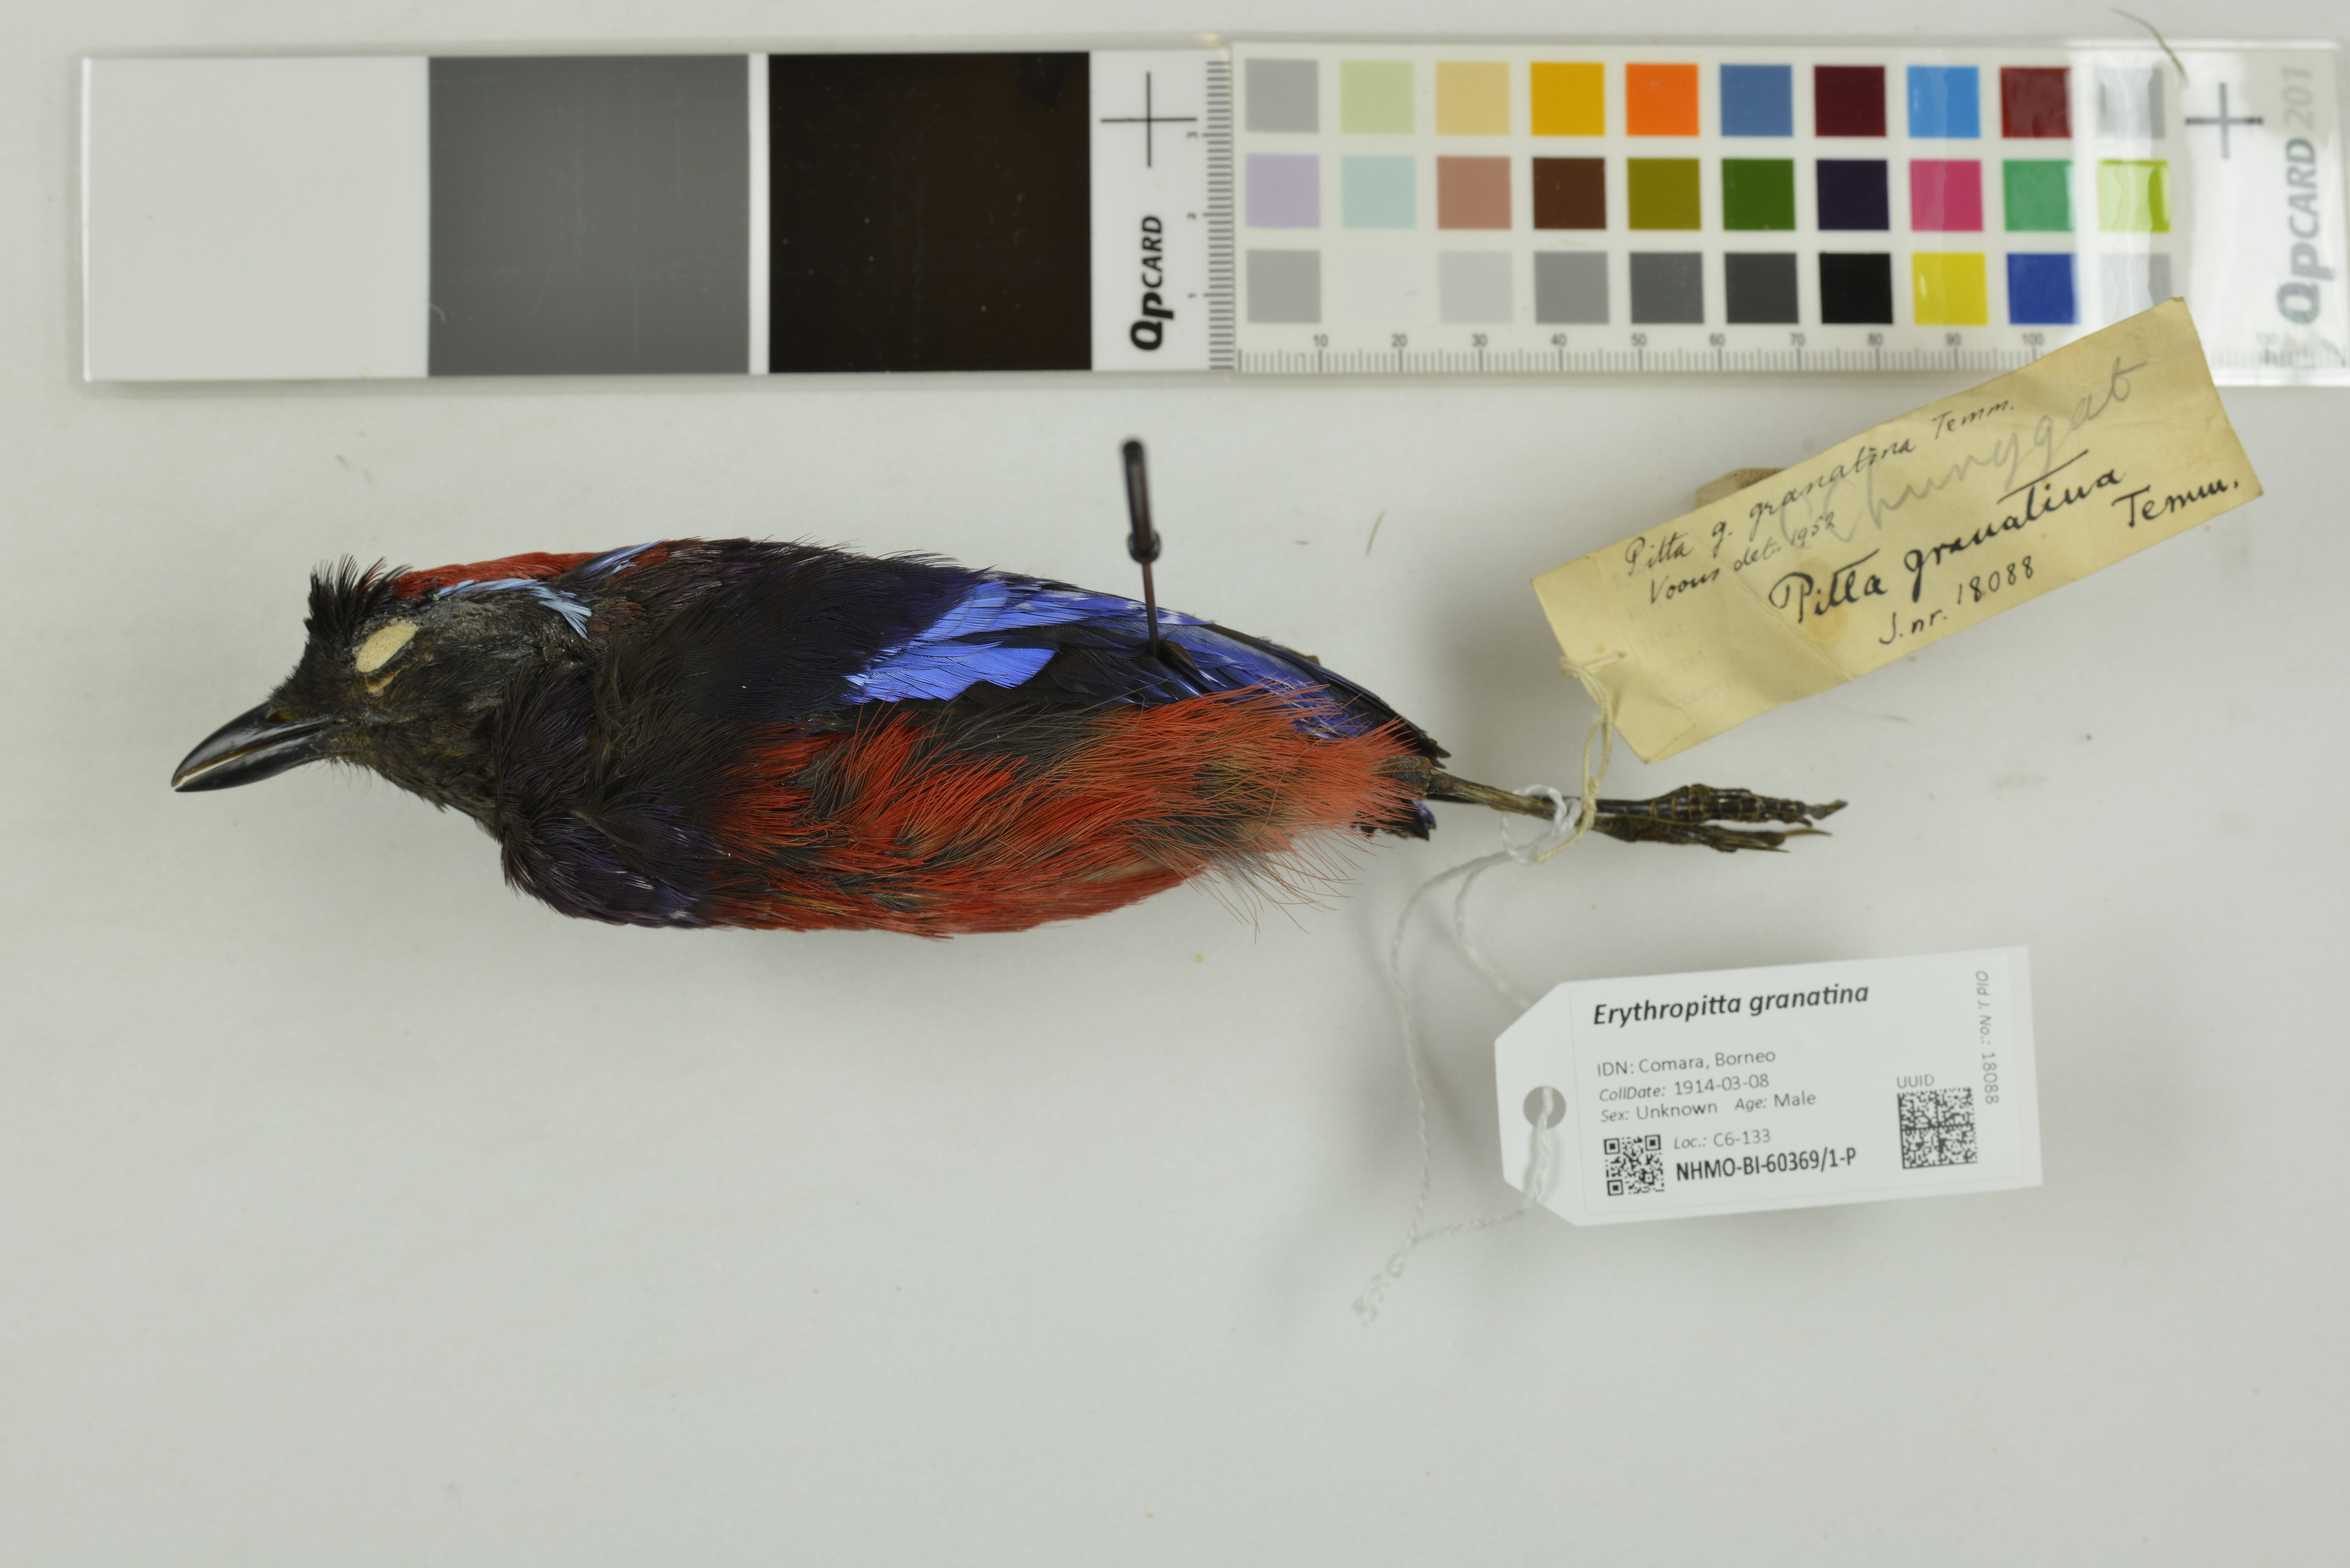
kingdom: Animalia
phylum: Chordata
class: Aves
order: Passeriformes
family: Pittidae
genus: Pitta
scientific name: Pitta granatina
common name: Garnet pitta
